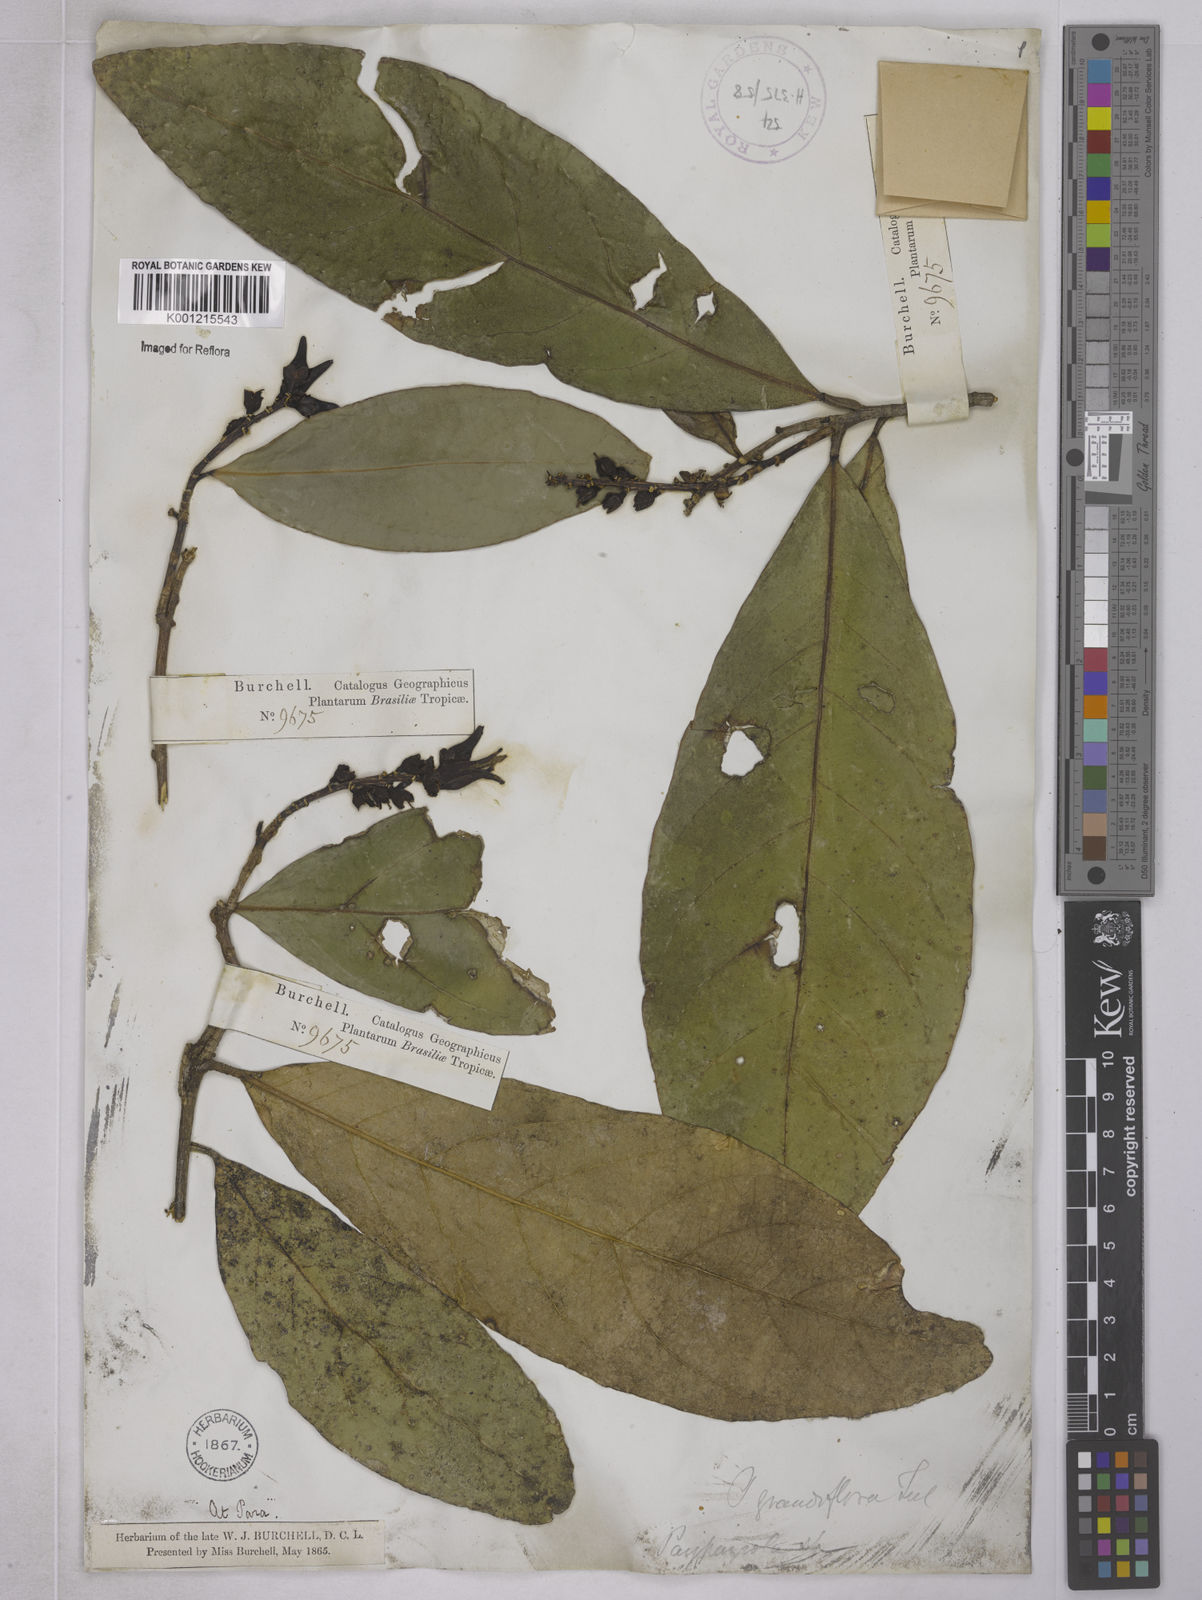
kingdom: Plantae
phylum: Tracheophyta
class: Magnoliopsida
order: Malpighiales
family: Violaceae
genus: Paypayrola
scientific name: Paypayrola grandiflora
